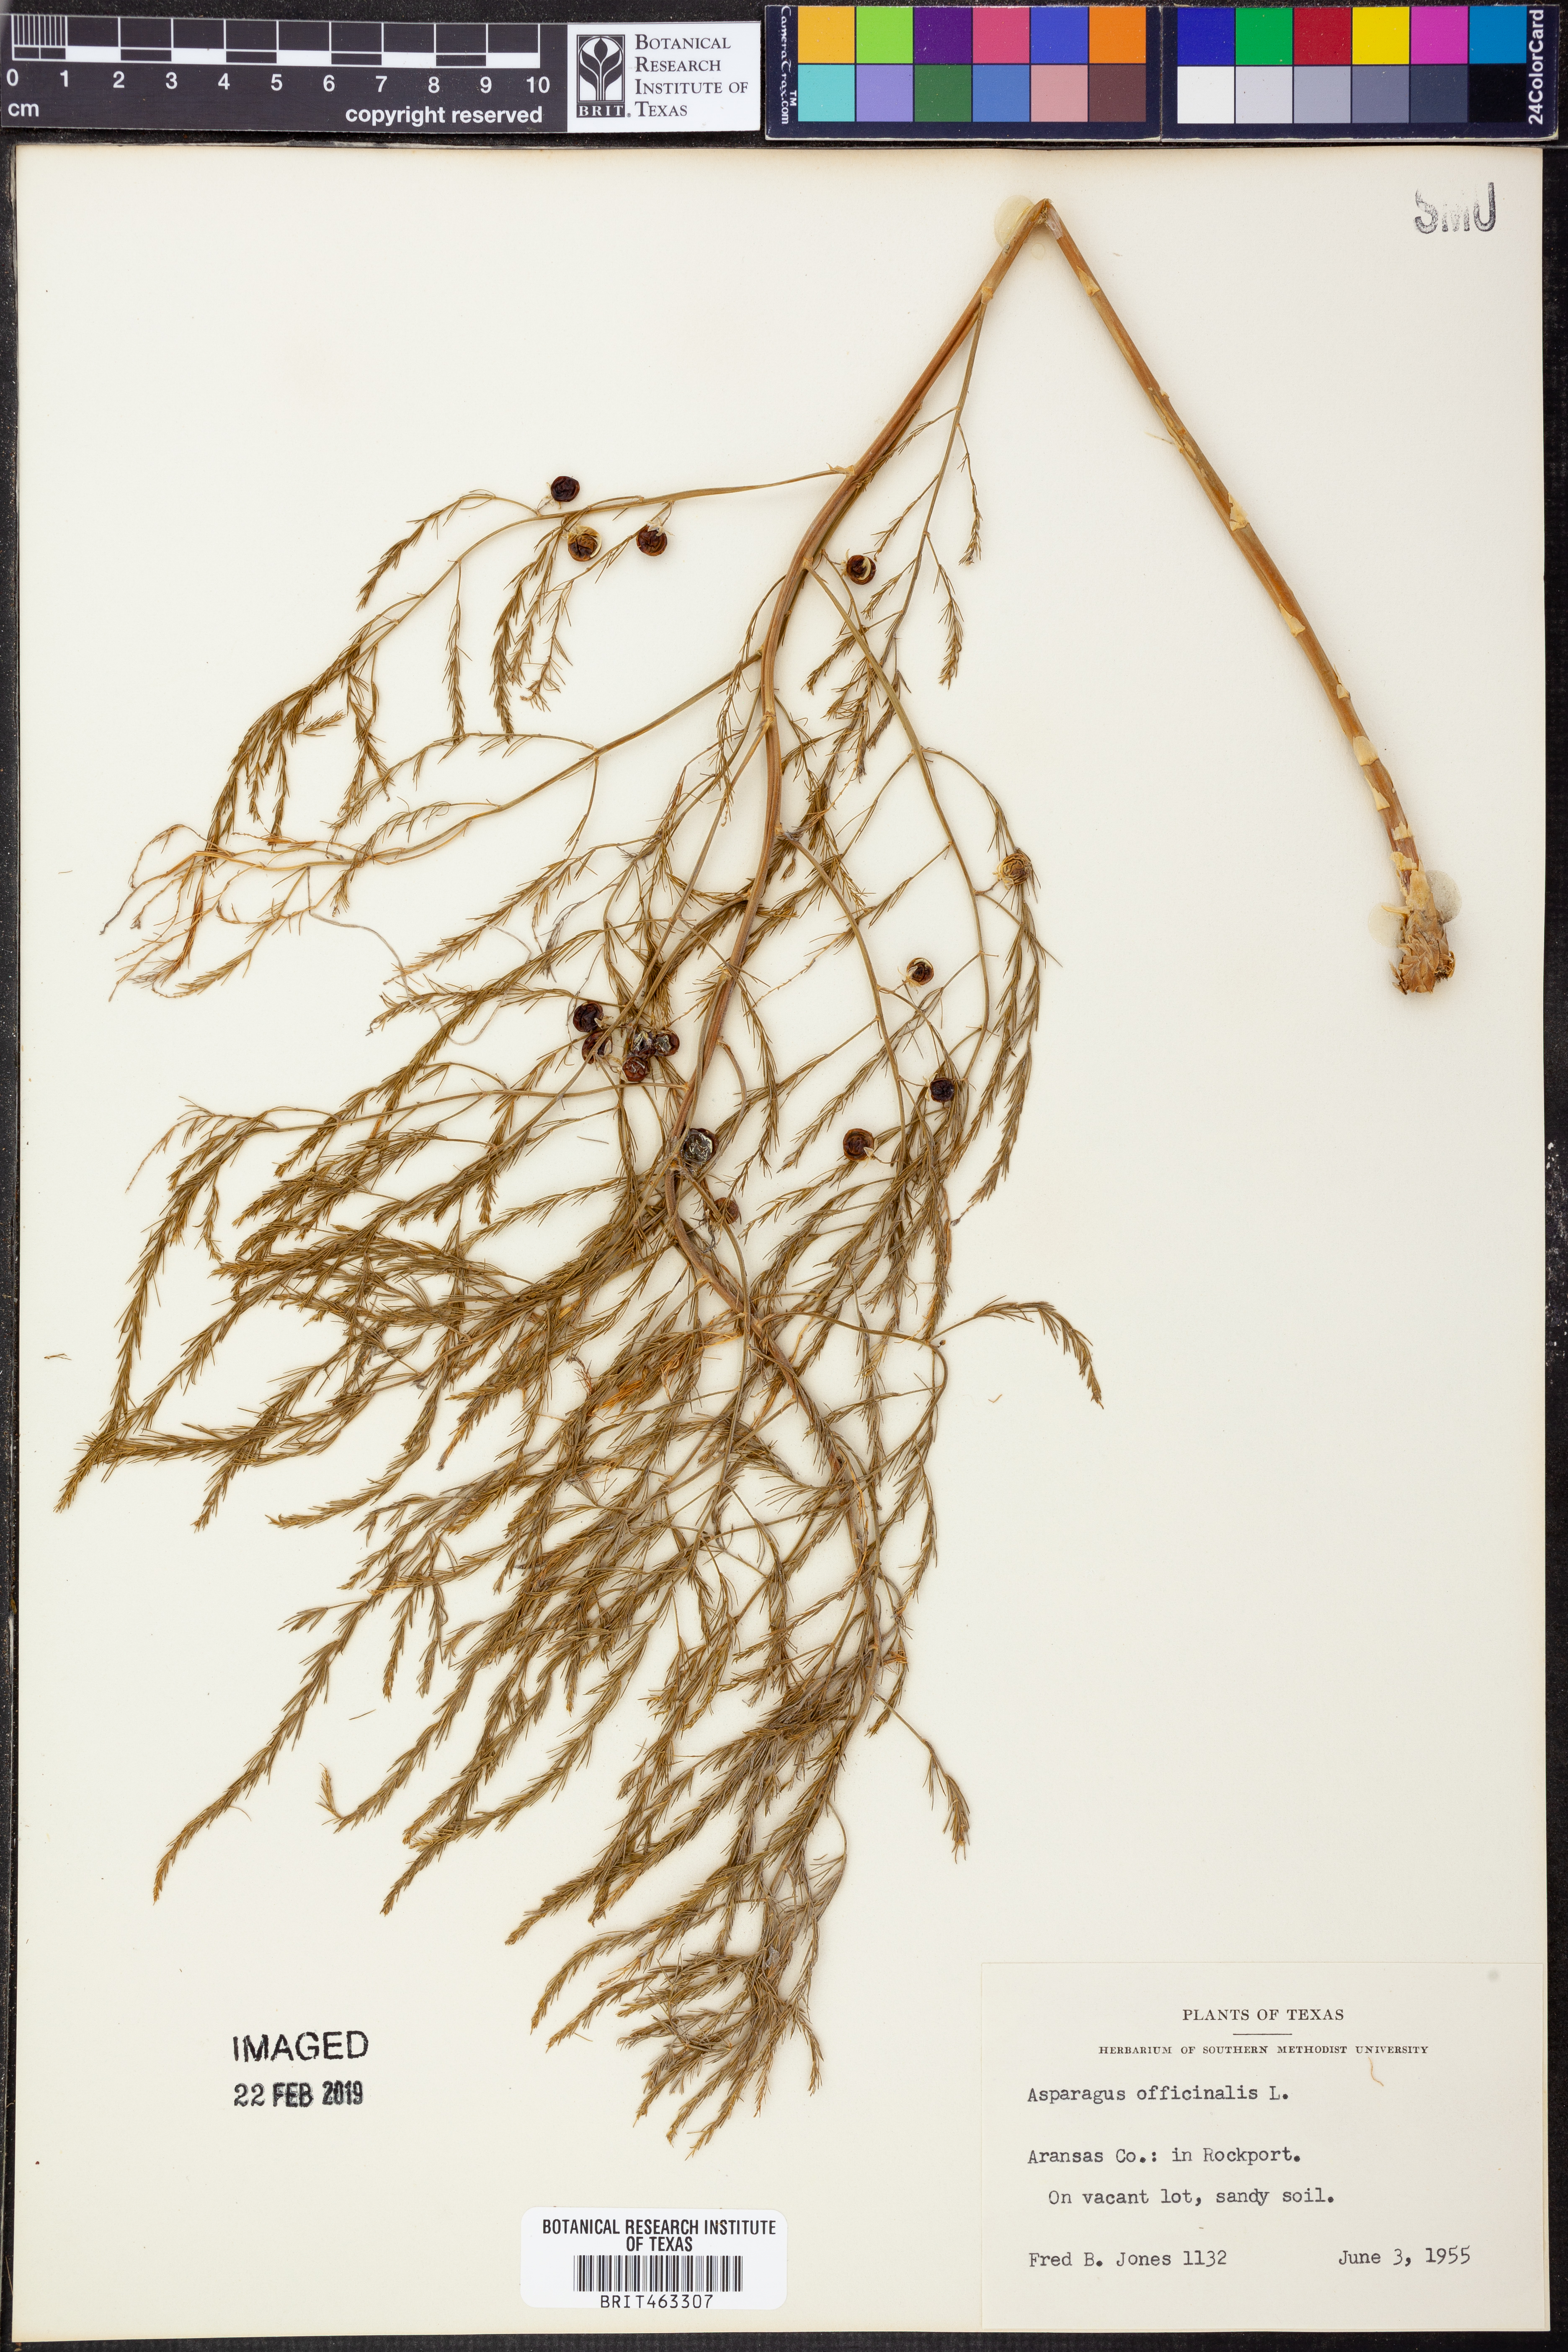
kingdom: Plantae
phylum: Tracheophyta
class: Liliopsida
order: Asparagales
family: Asparagaceae
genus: Asparagus
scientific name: Asparagus officinalis
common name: Garden asparagus
